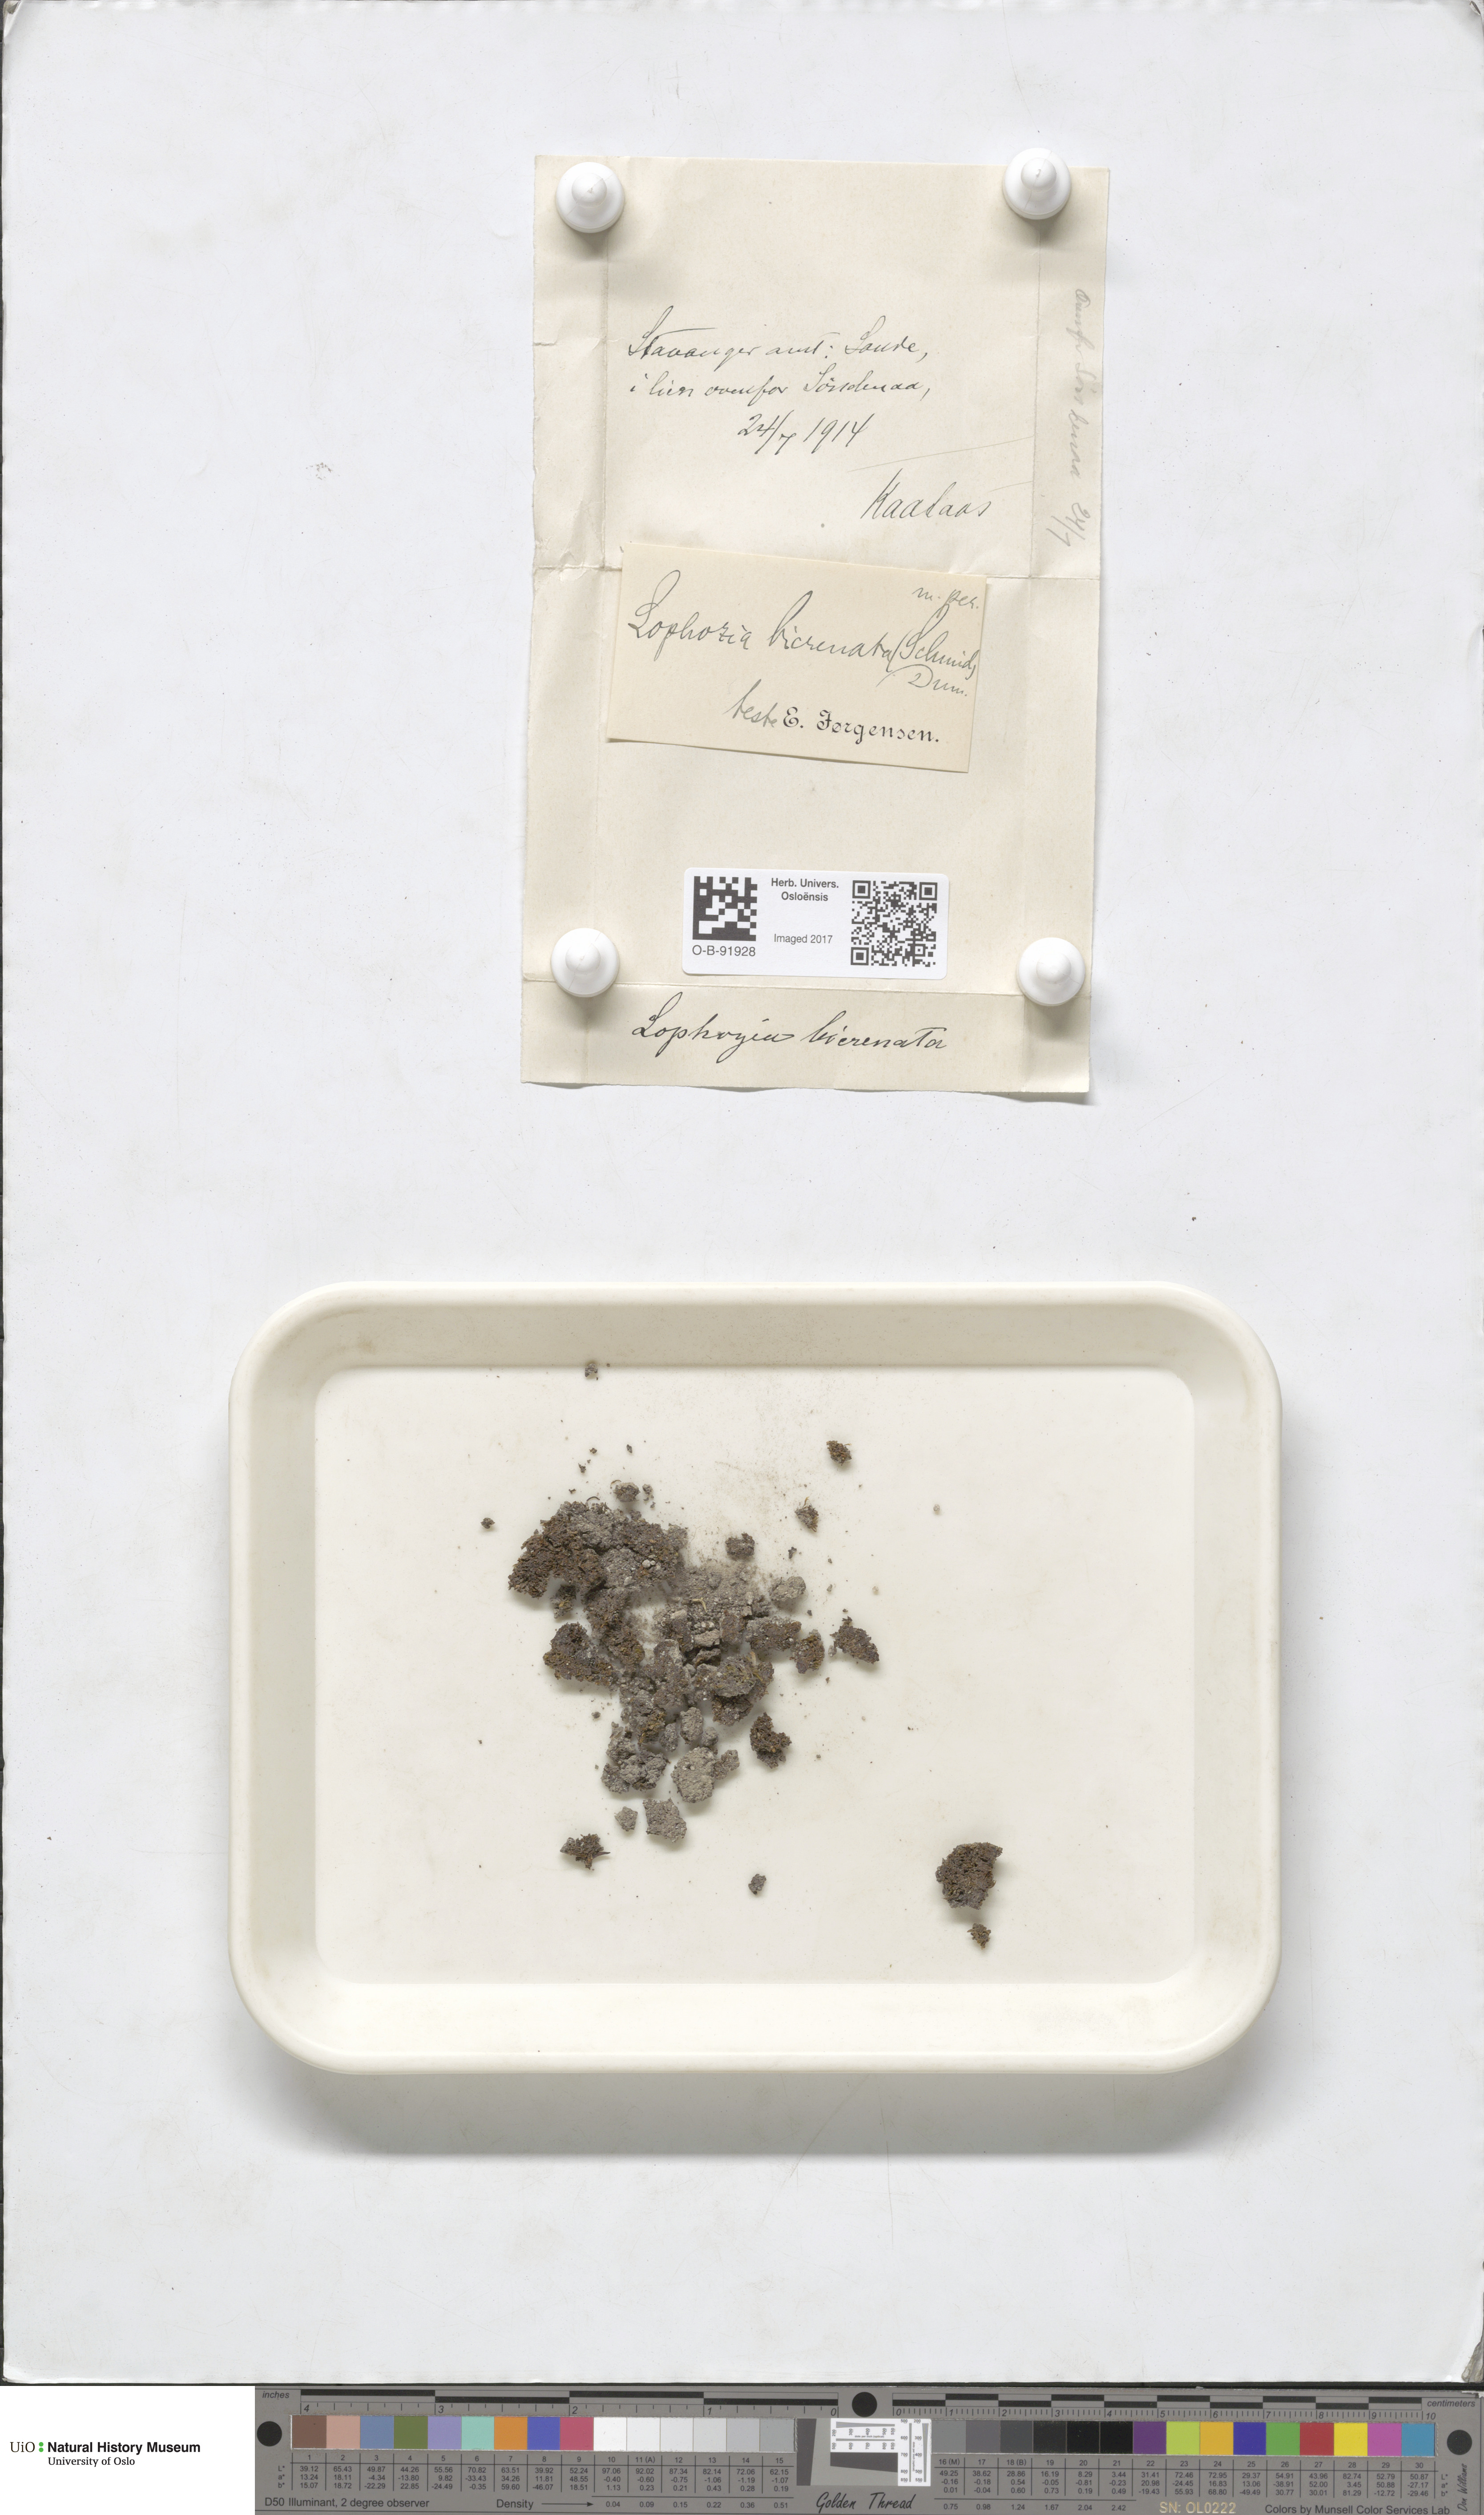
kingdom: Plantae
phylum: Marchantiophyta
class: Jungermanniopsida
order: Jungermanniales
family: Anastrophyllaceae
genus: Isopaches
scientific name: Isopaches bicrenatus
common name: Lesser notchwort
